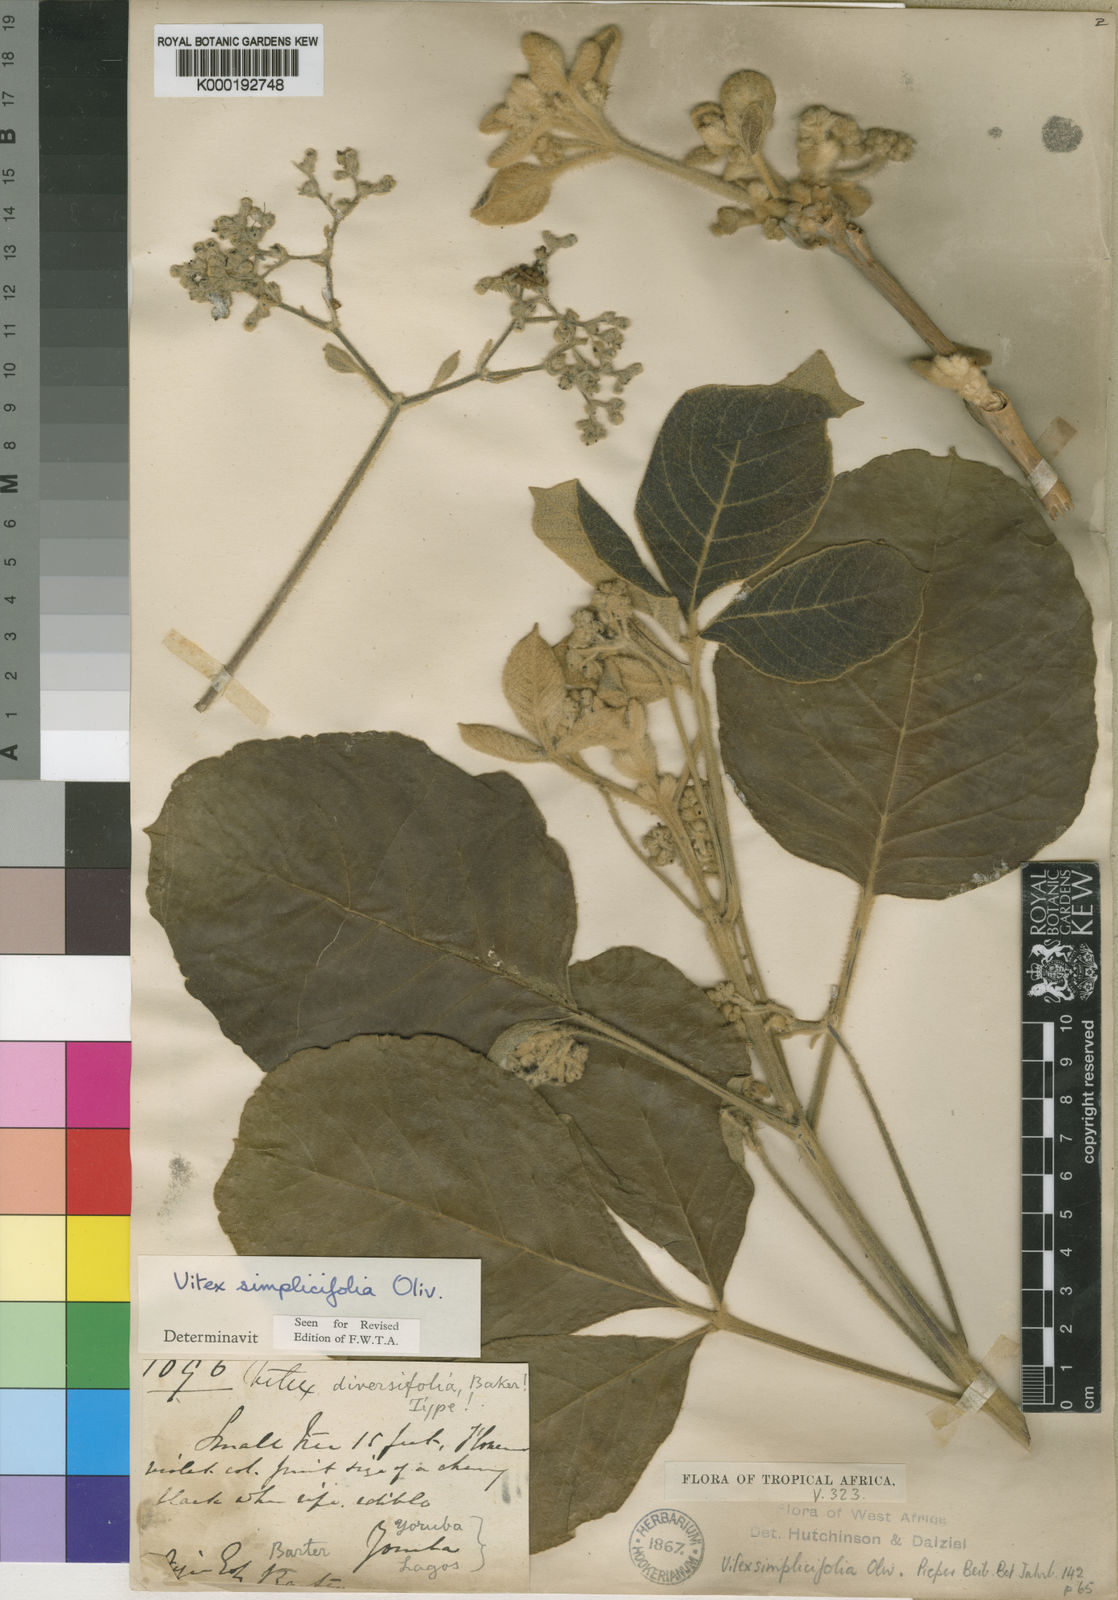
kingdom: Plantae
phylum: Tracheophyta
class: Magnoliopsida
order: Lamiales
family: Lamiaceae
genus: Vitex
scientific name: Vitex madiensis
